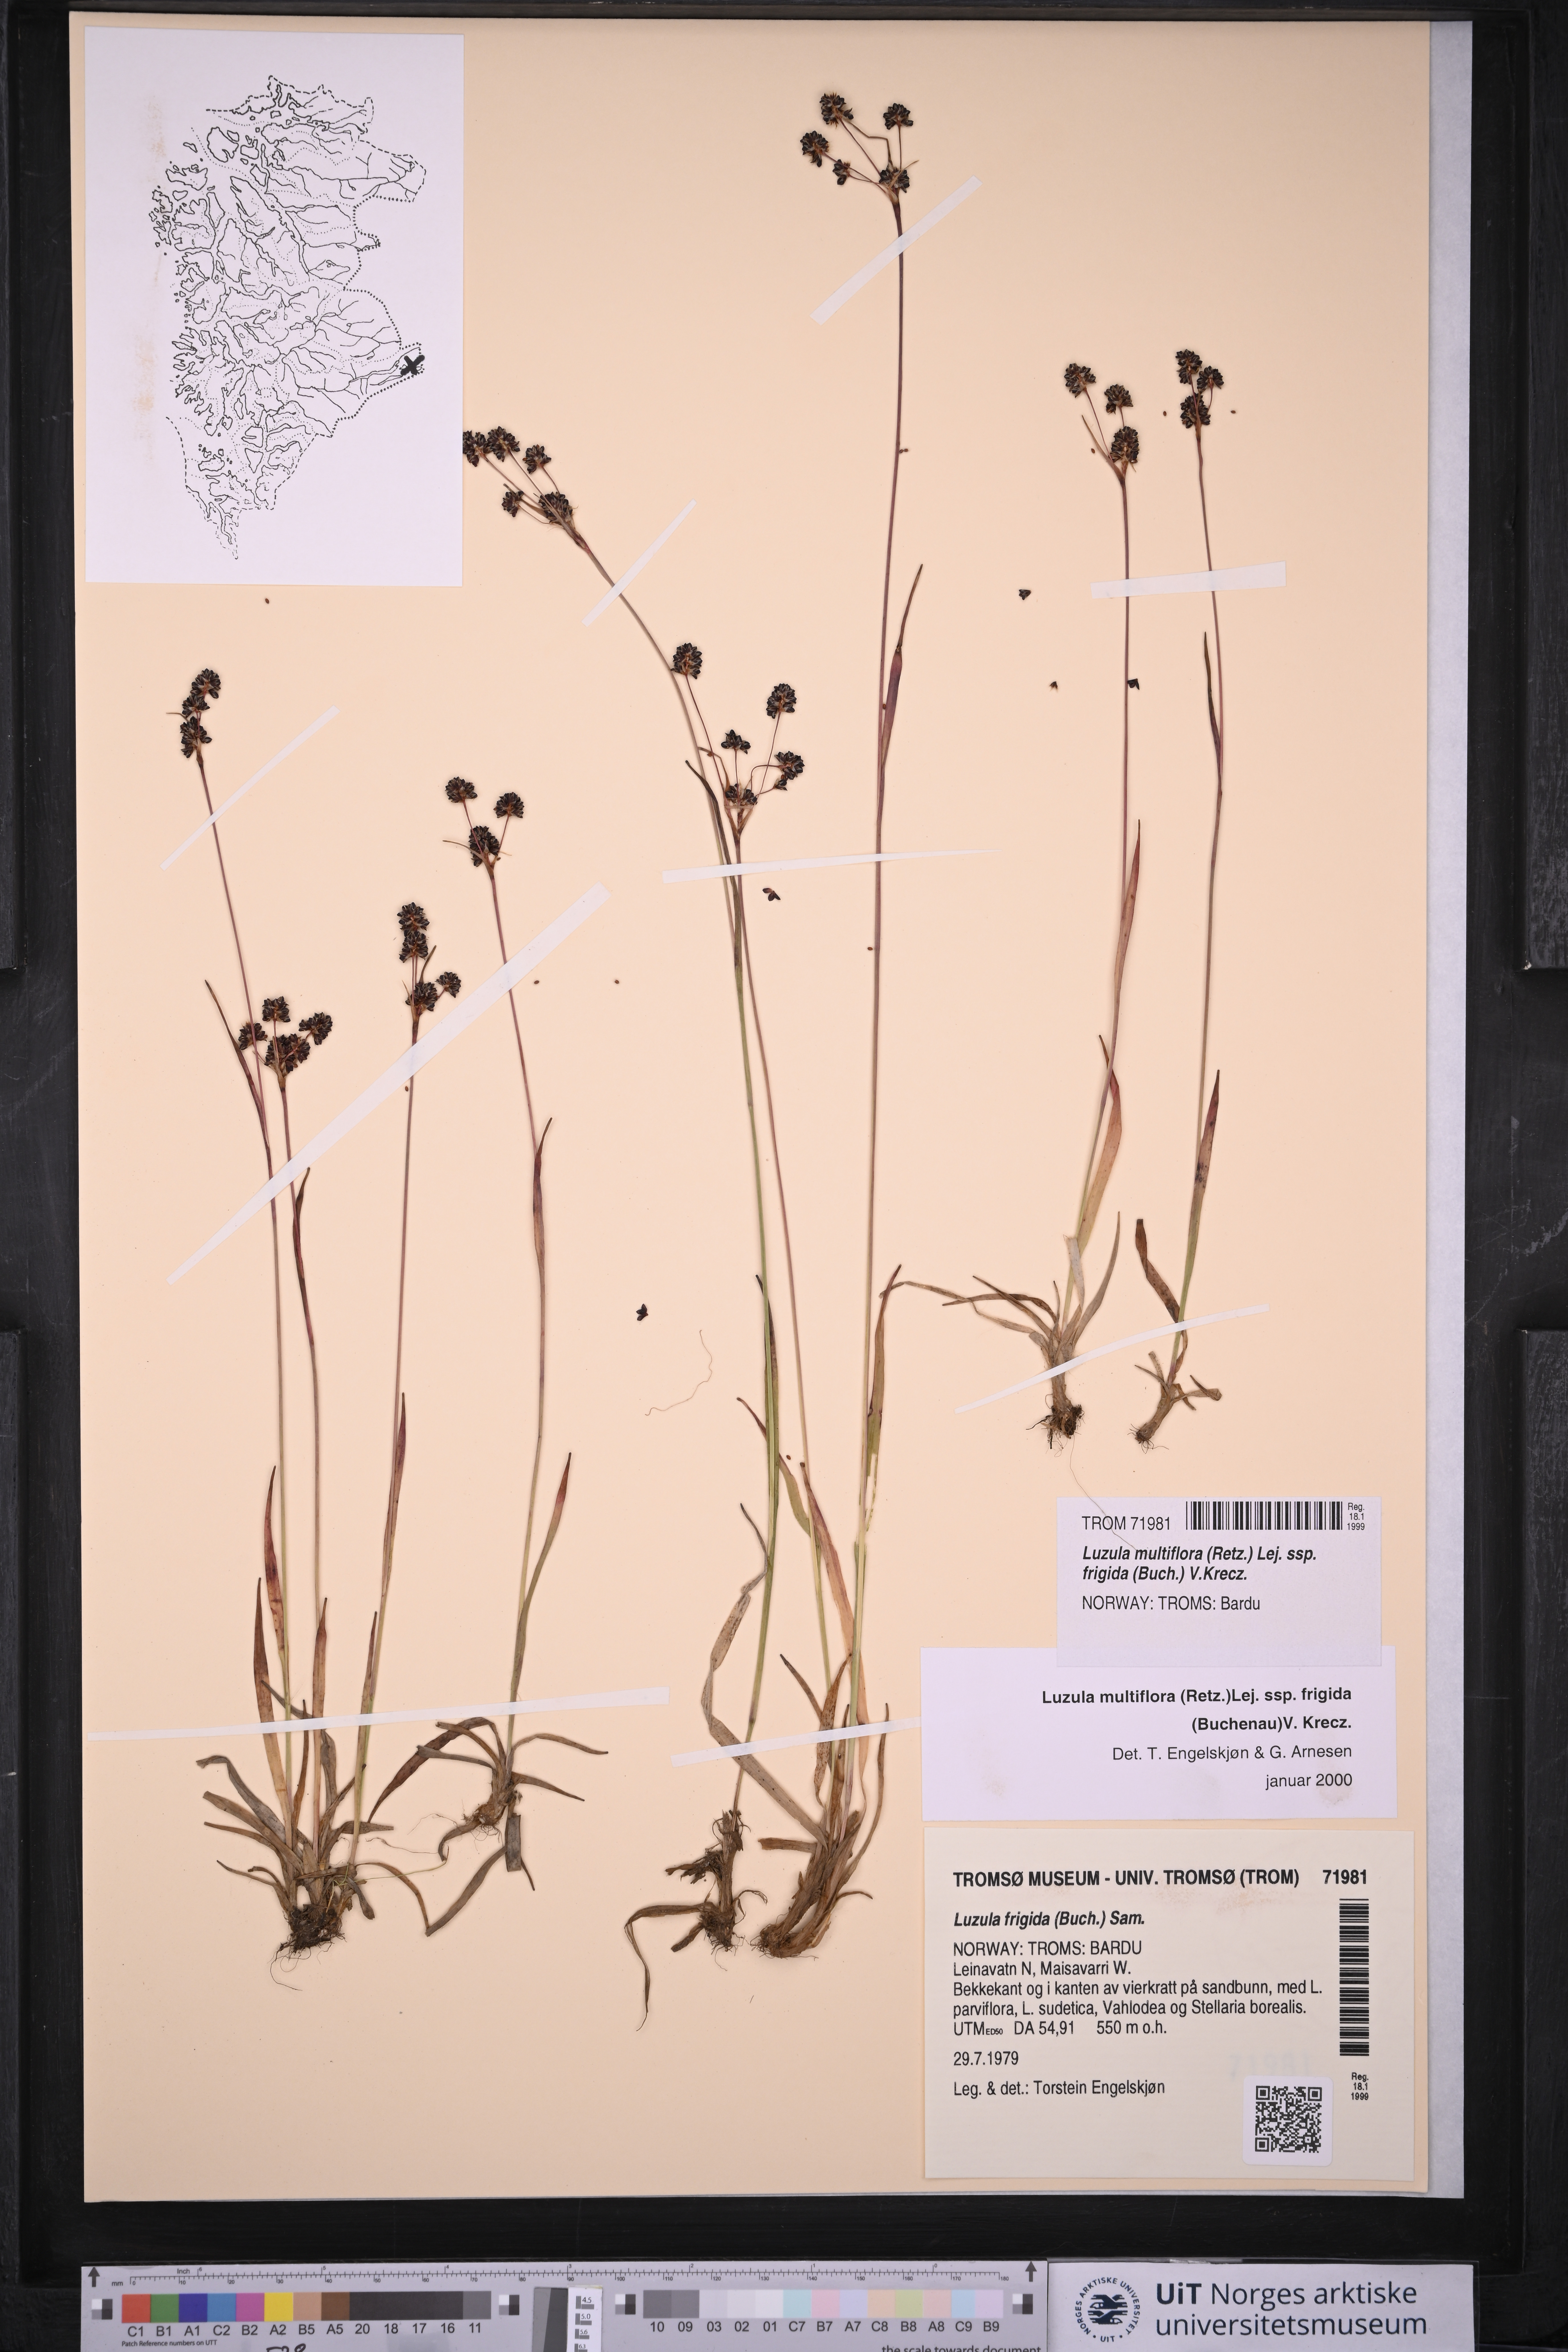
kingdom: Plantae
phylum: Tracheophyta
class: Liliopsida
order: Poales
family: Juncaceae
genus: Luzula
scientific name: Luzula multiflora
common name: Heath wood-rush
